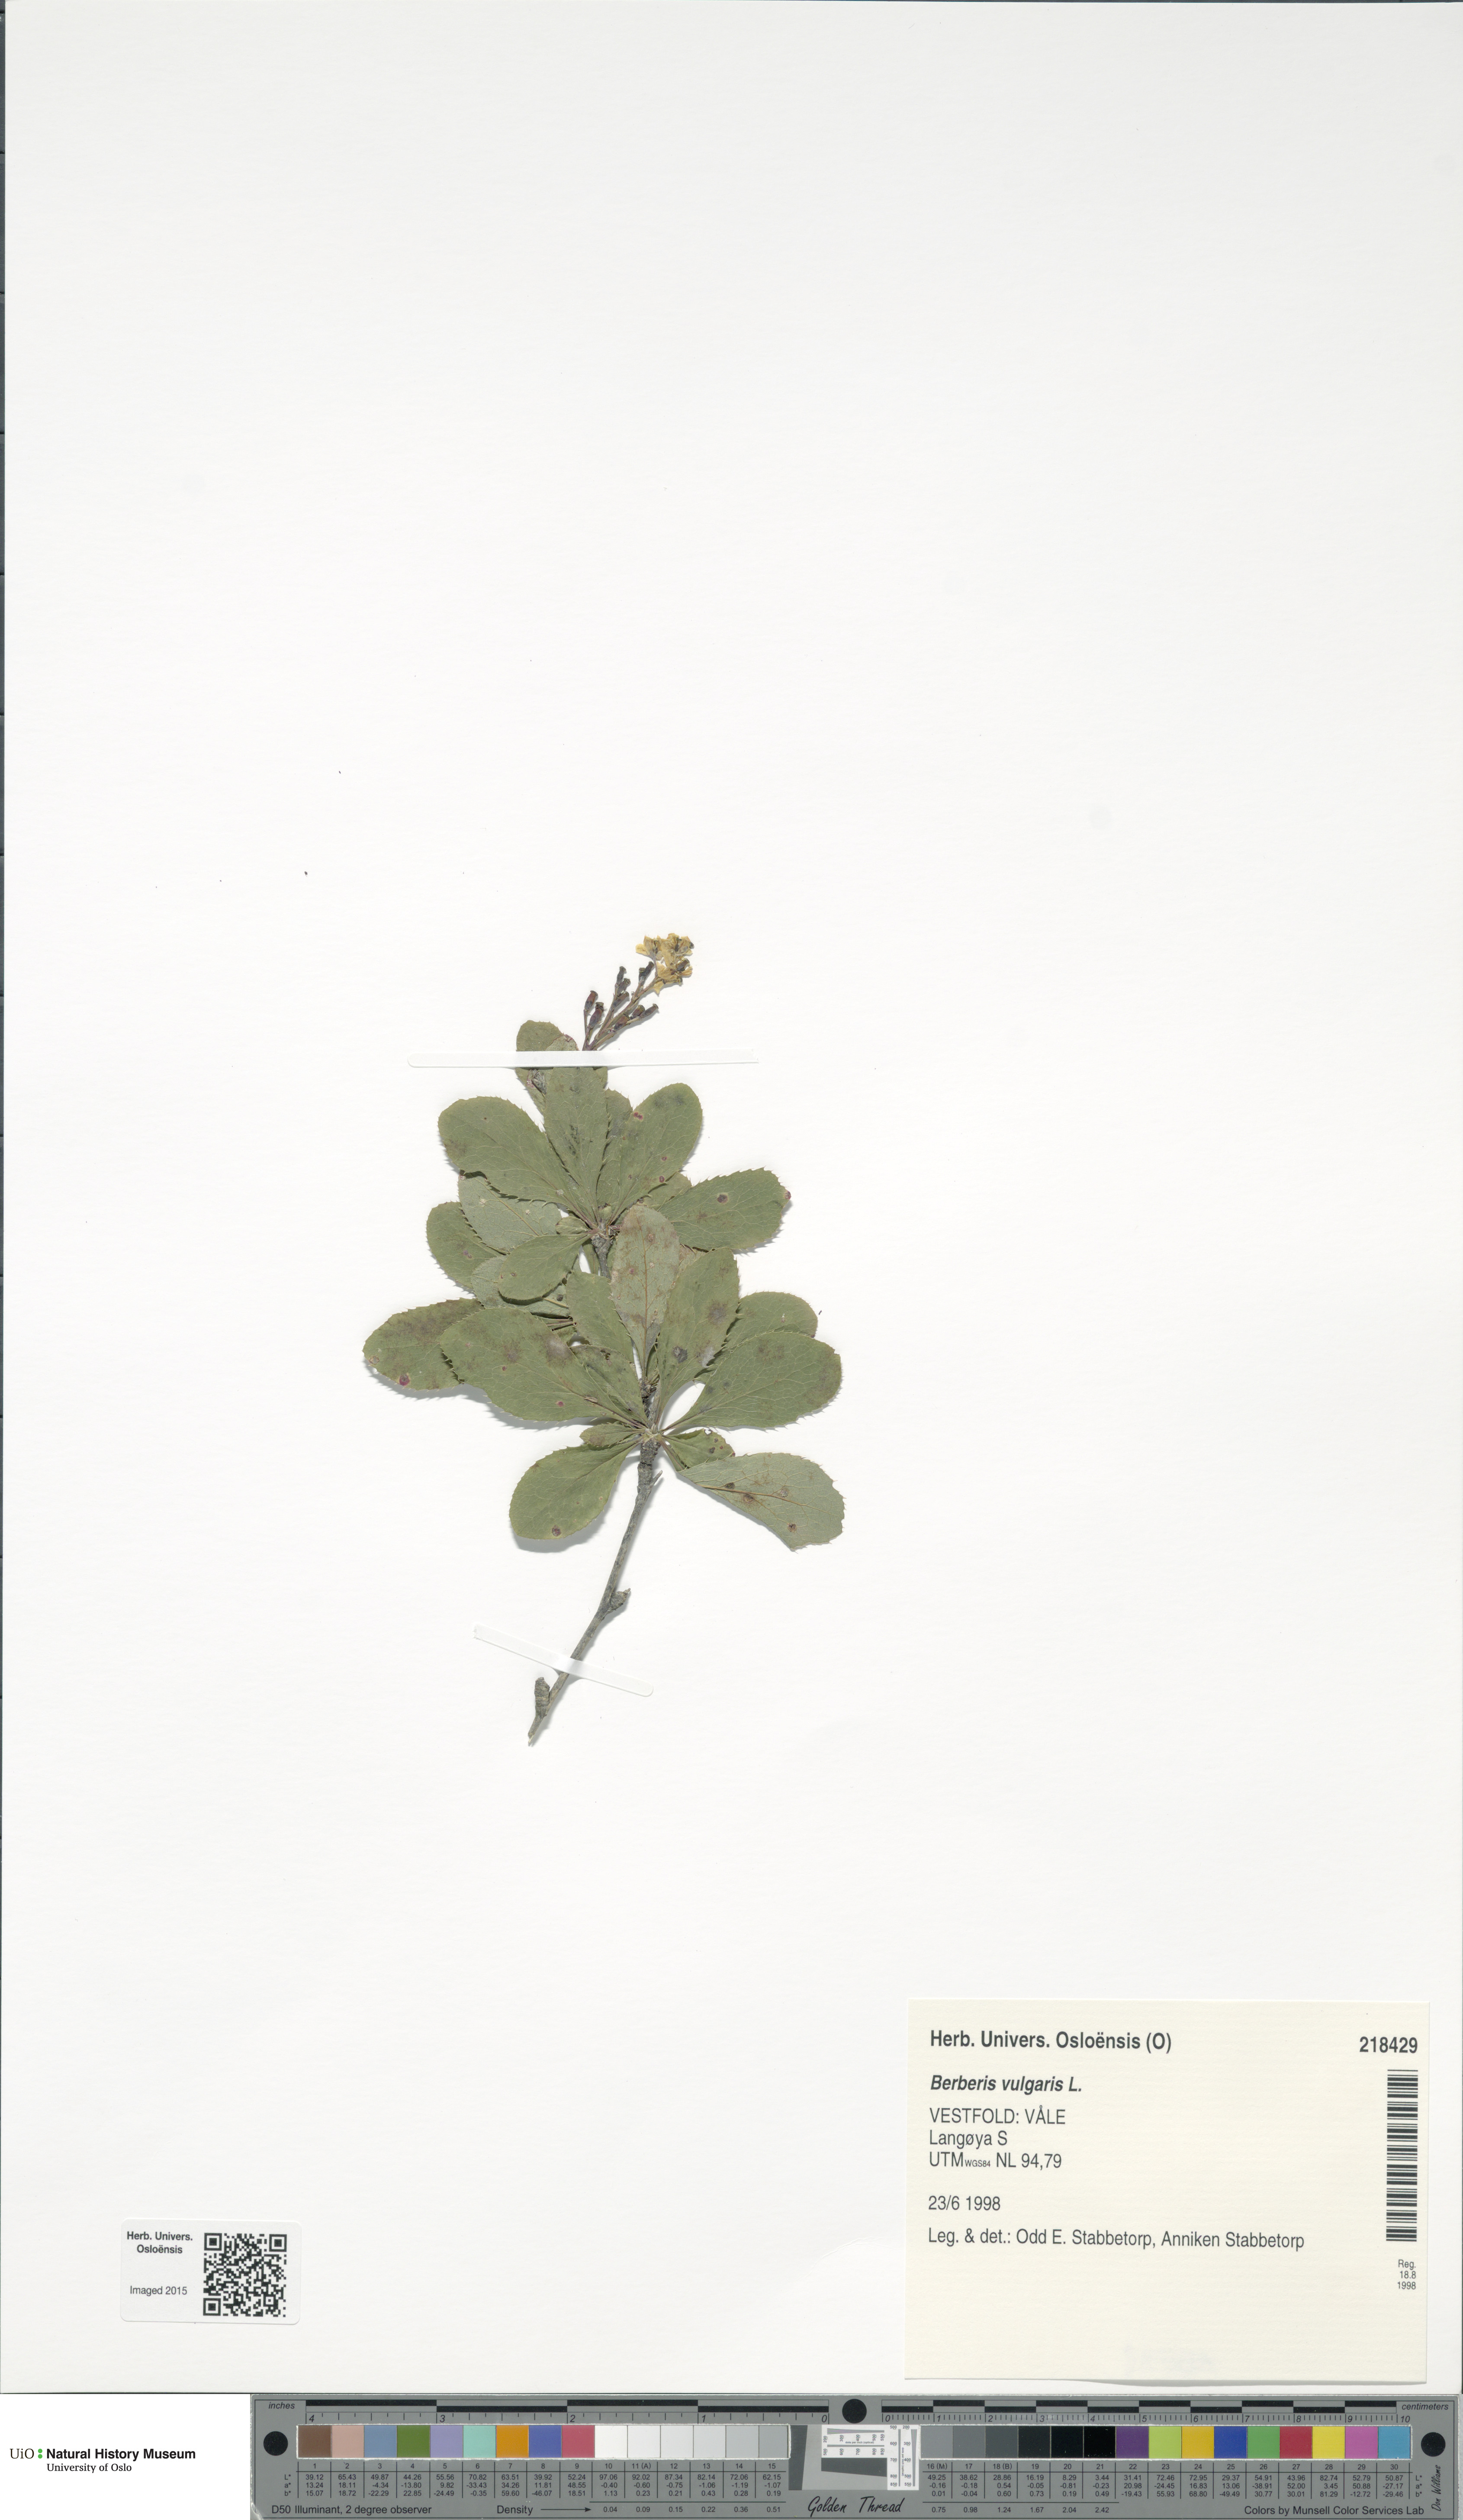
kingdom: Plantae
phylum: Tracheophyta
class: Magnoliopsida
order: Ranunculales
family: Berberidaceae
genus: Berberis
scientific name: Berberis vulgaris
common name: Barberry
